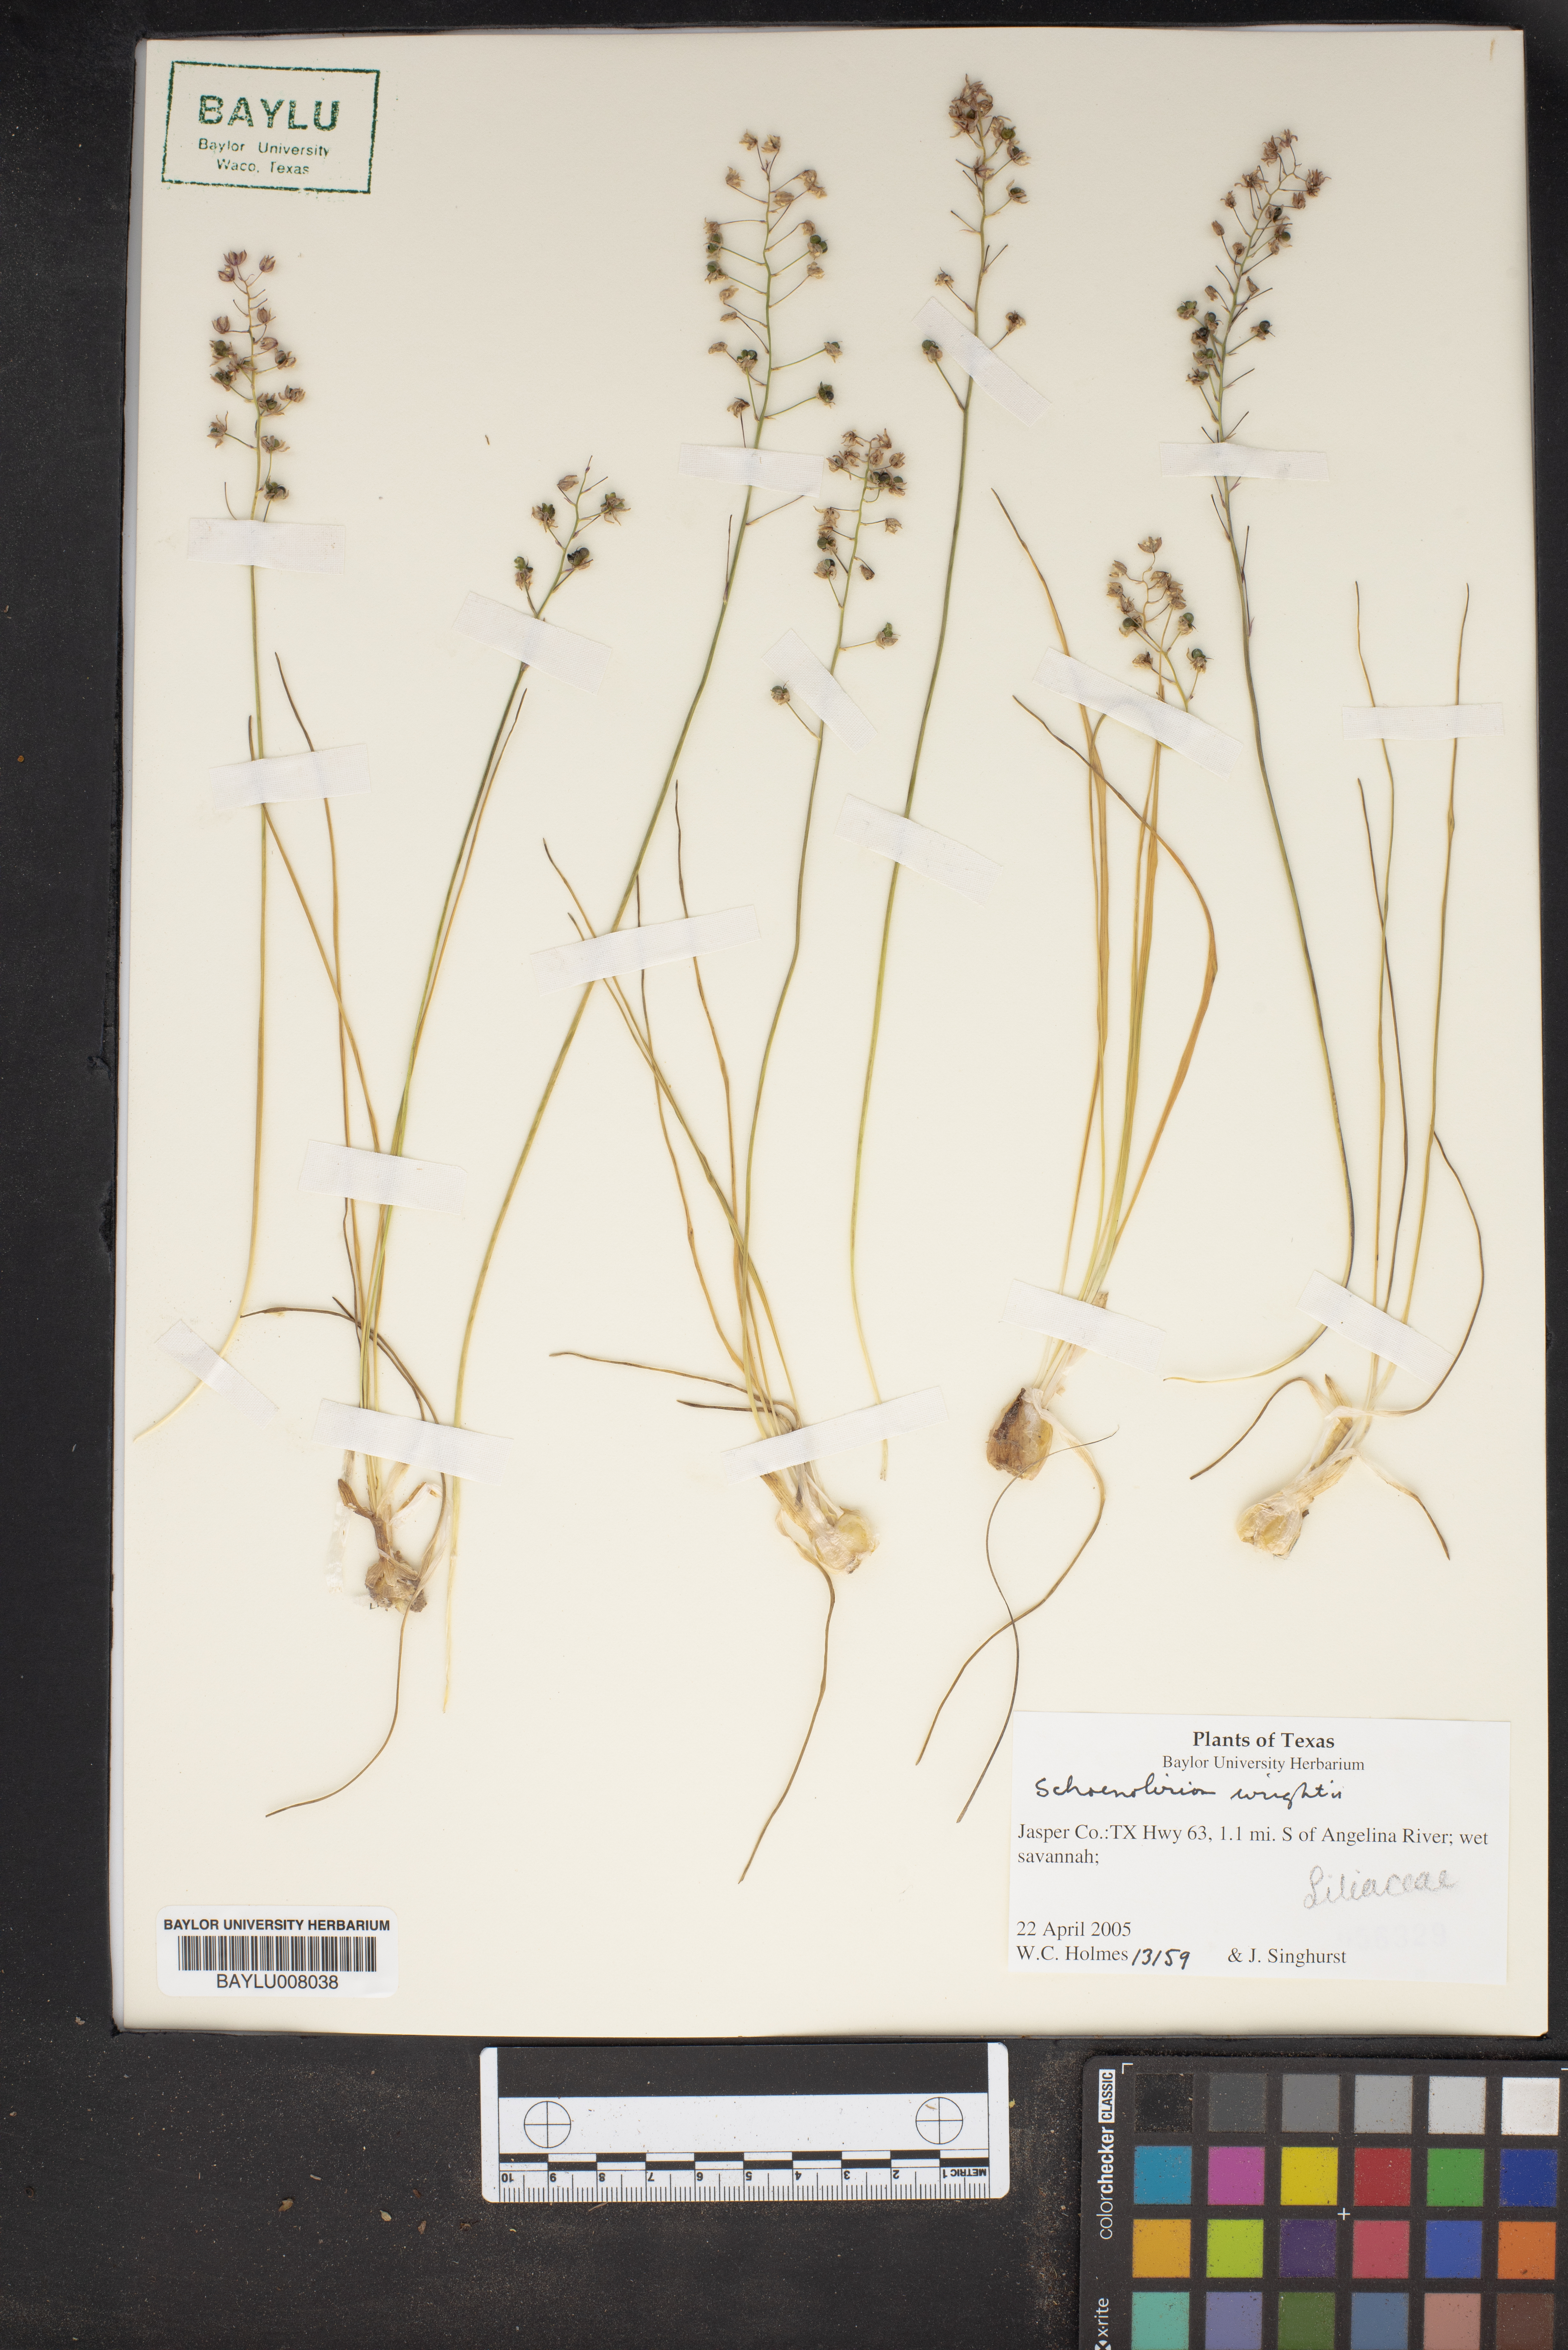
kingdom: Plantae
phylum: Tracheophyta
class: Liliopsida
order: Asparagales
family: Asparagaceae
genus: Schoenolirion
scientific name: Schoenolirion wrightii
